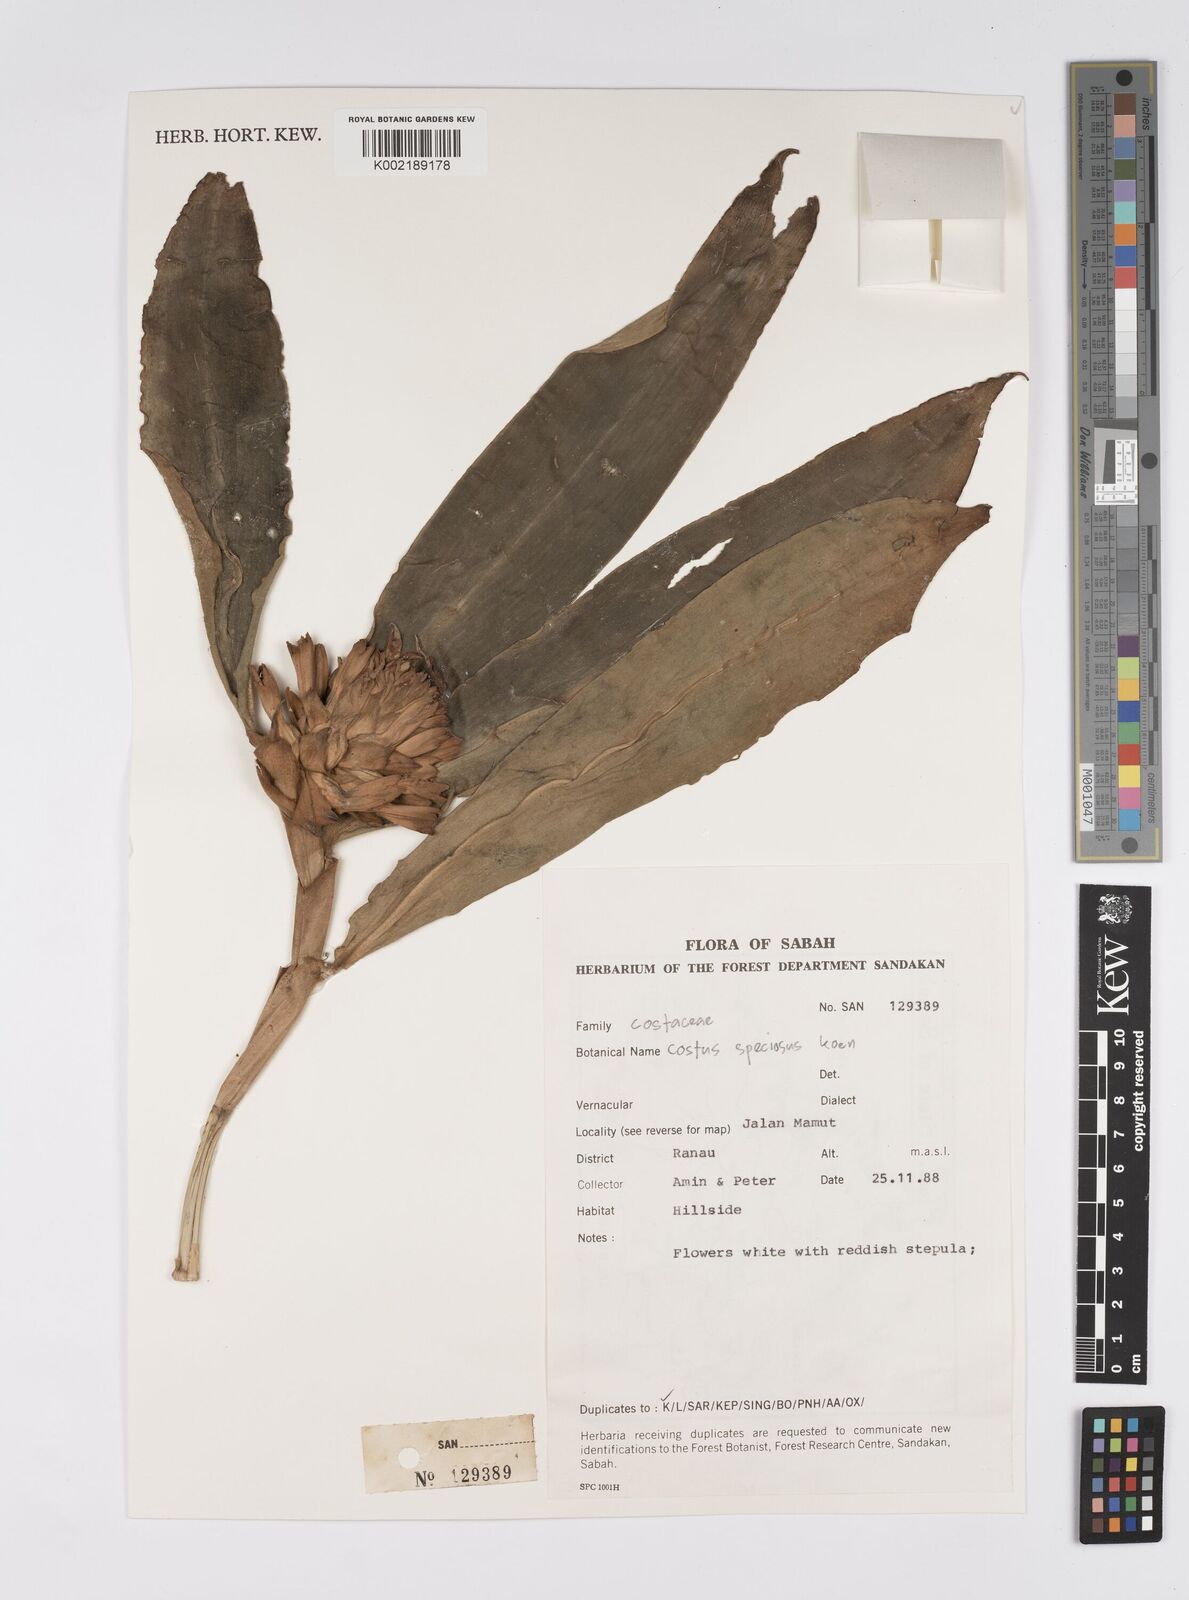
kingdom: Plantae
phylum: Tracheophyta
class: Liliopsida
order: Zingiberales
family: Costaceae
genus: Hellenia
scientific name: Hellenia speciosa
